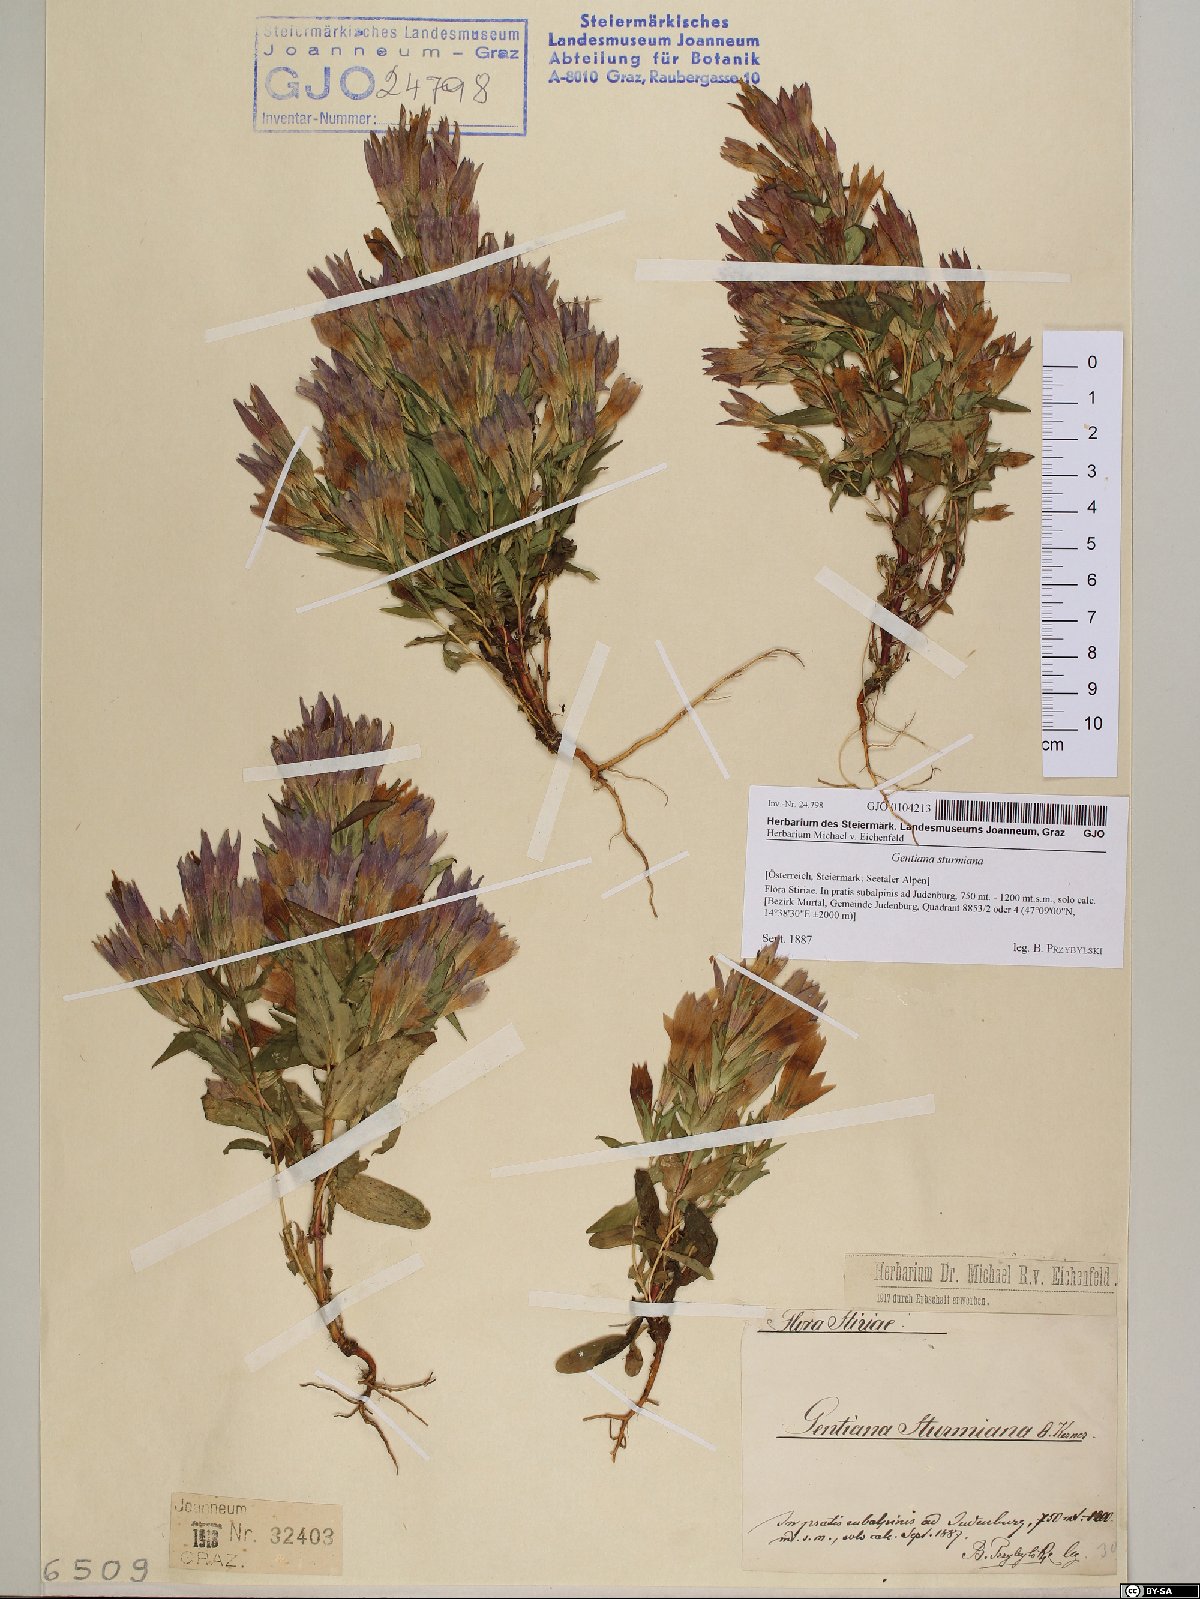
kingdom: Plantae
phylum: Tracheophyta
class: Magnoliopsida
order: Gentianales
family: Gentianaceae
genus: Gentianella
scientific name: Gentianella obtusifolia
